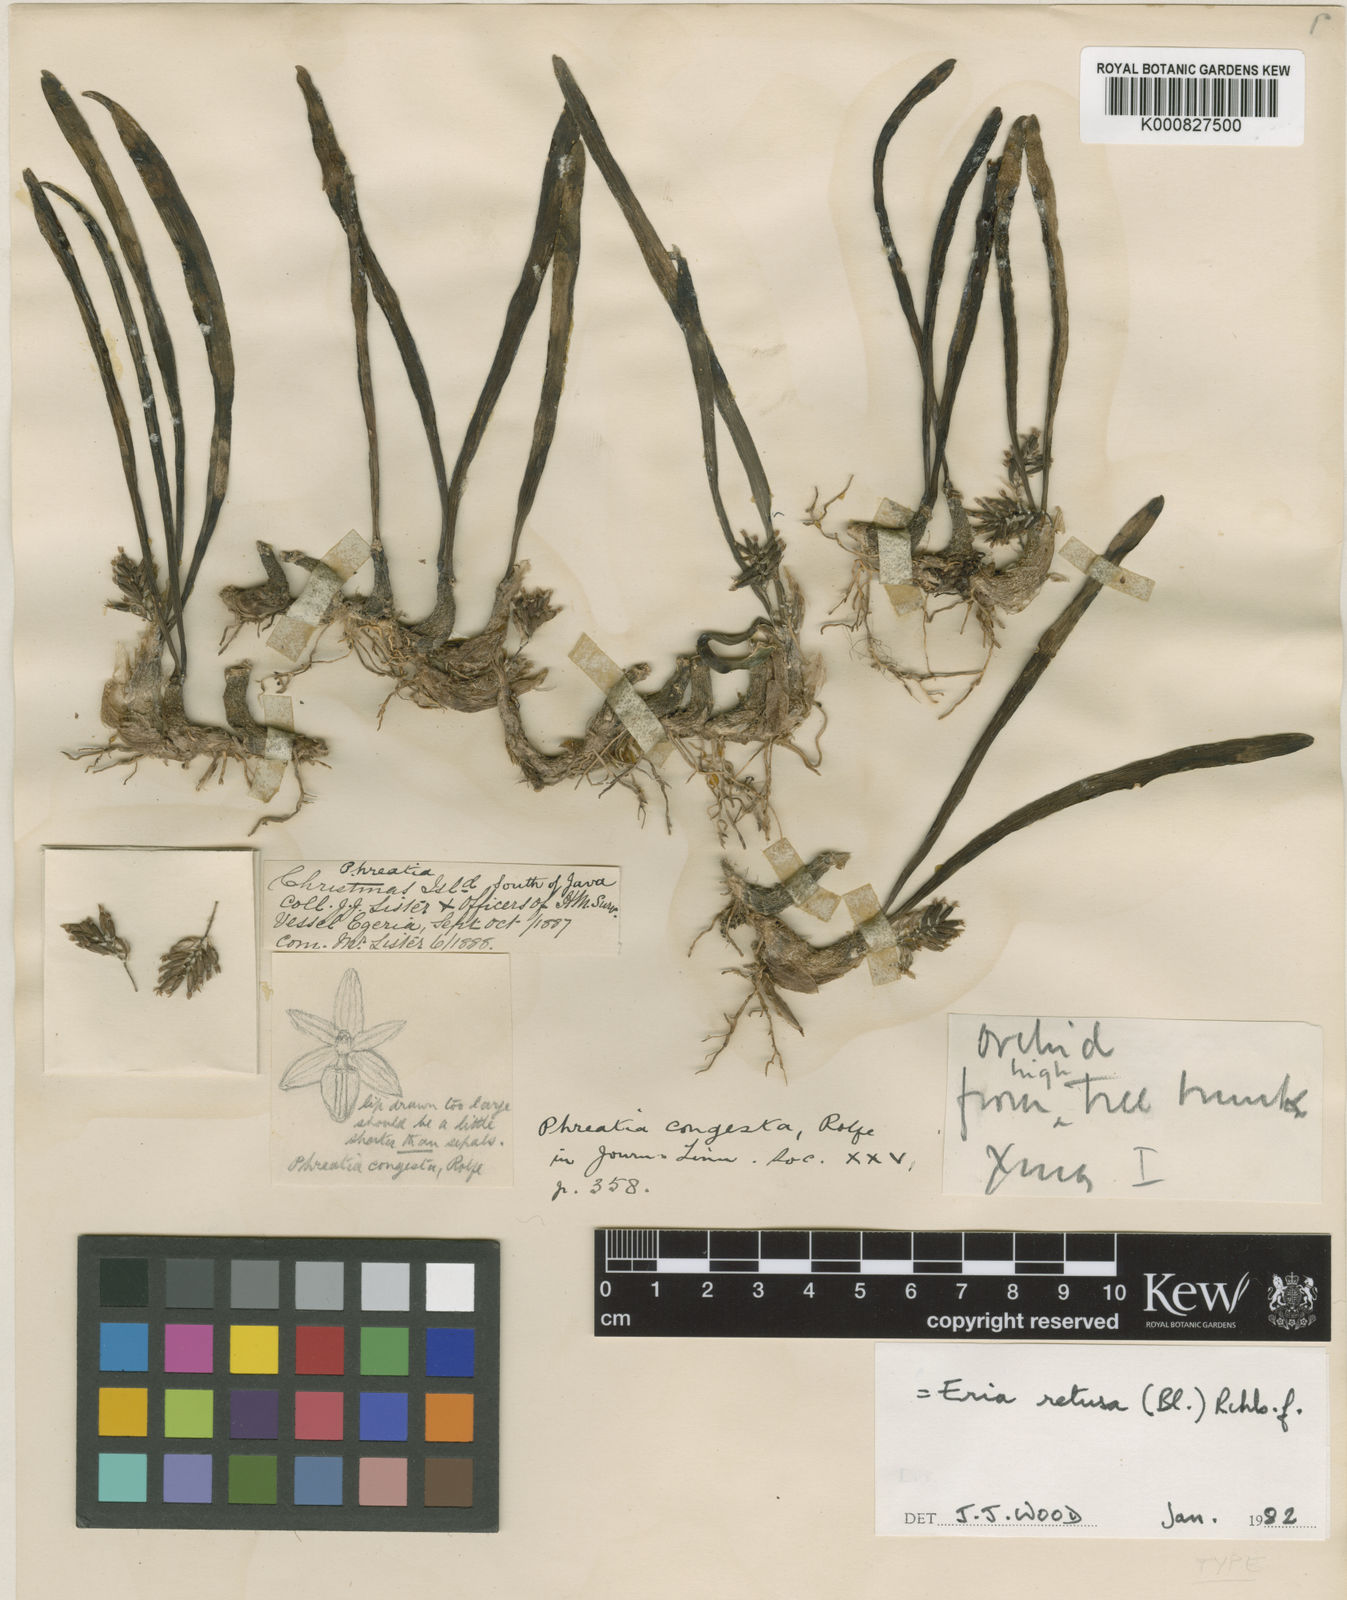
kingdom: Plantae
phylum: Tracheophyta
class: Liliopsida
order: Asparagales
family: Orchidaceae
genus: Bryobium
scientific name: Bryobium retusum
